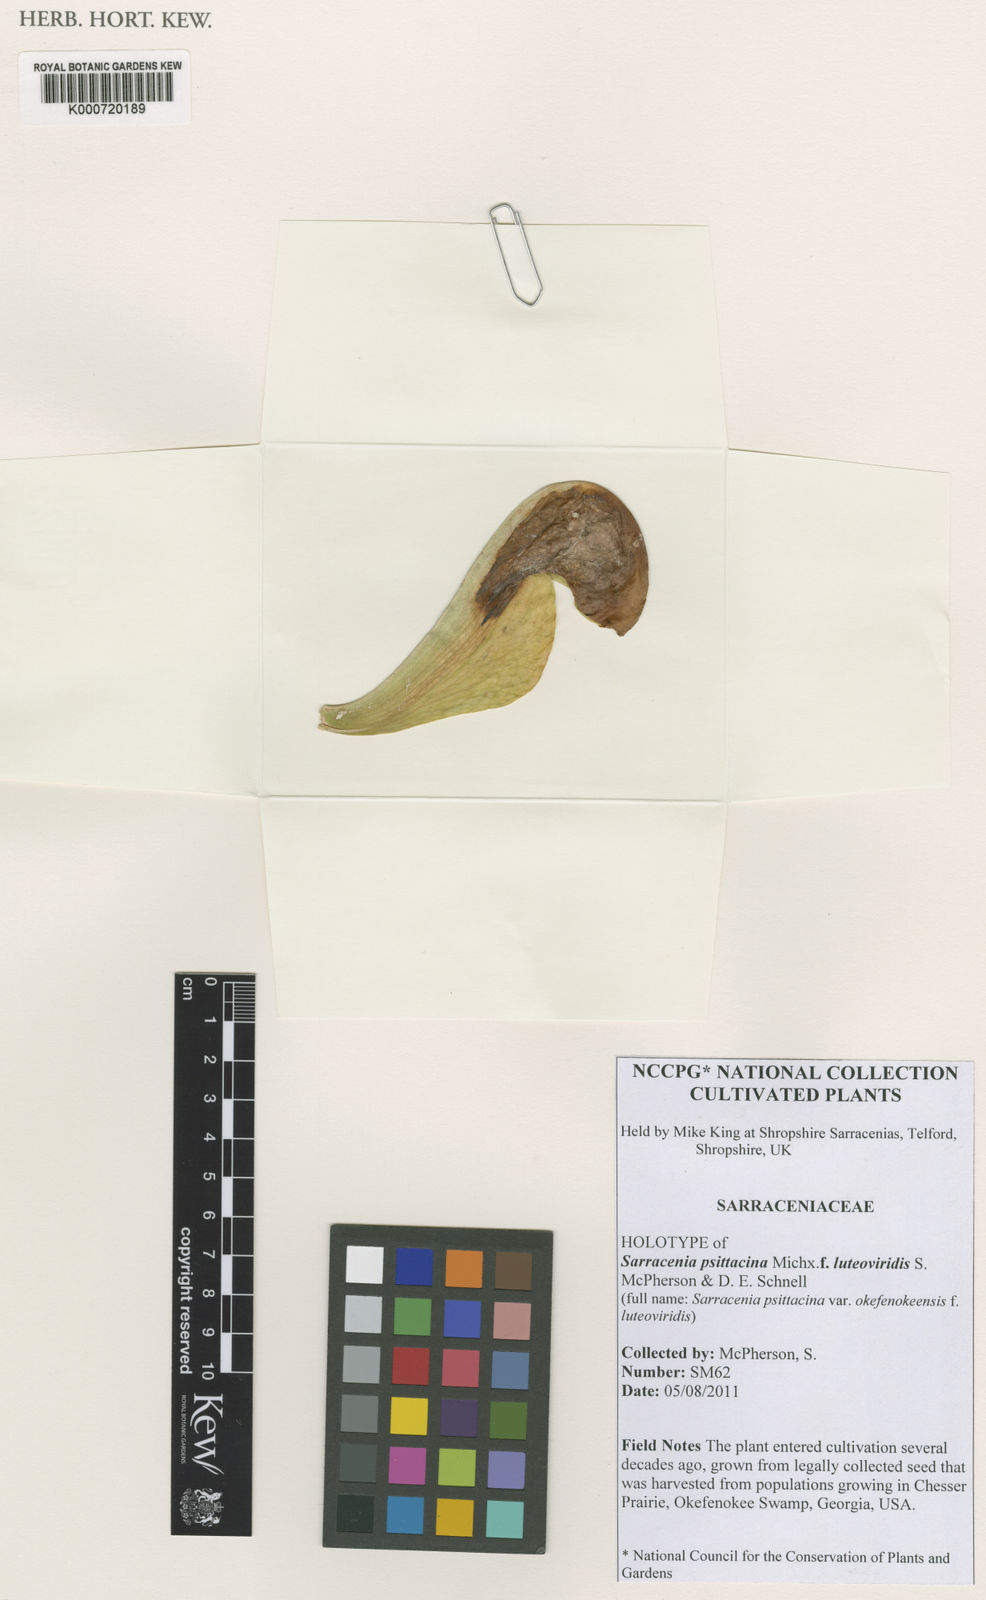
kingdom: Plantae
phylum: Tracheophyta
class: Magnoliopsida
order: Ericales
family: Sarraceniaceae
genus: Sarracenia
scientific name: Sarracenia psittacina
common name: Parrot pitcherplant
